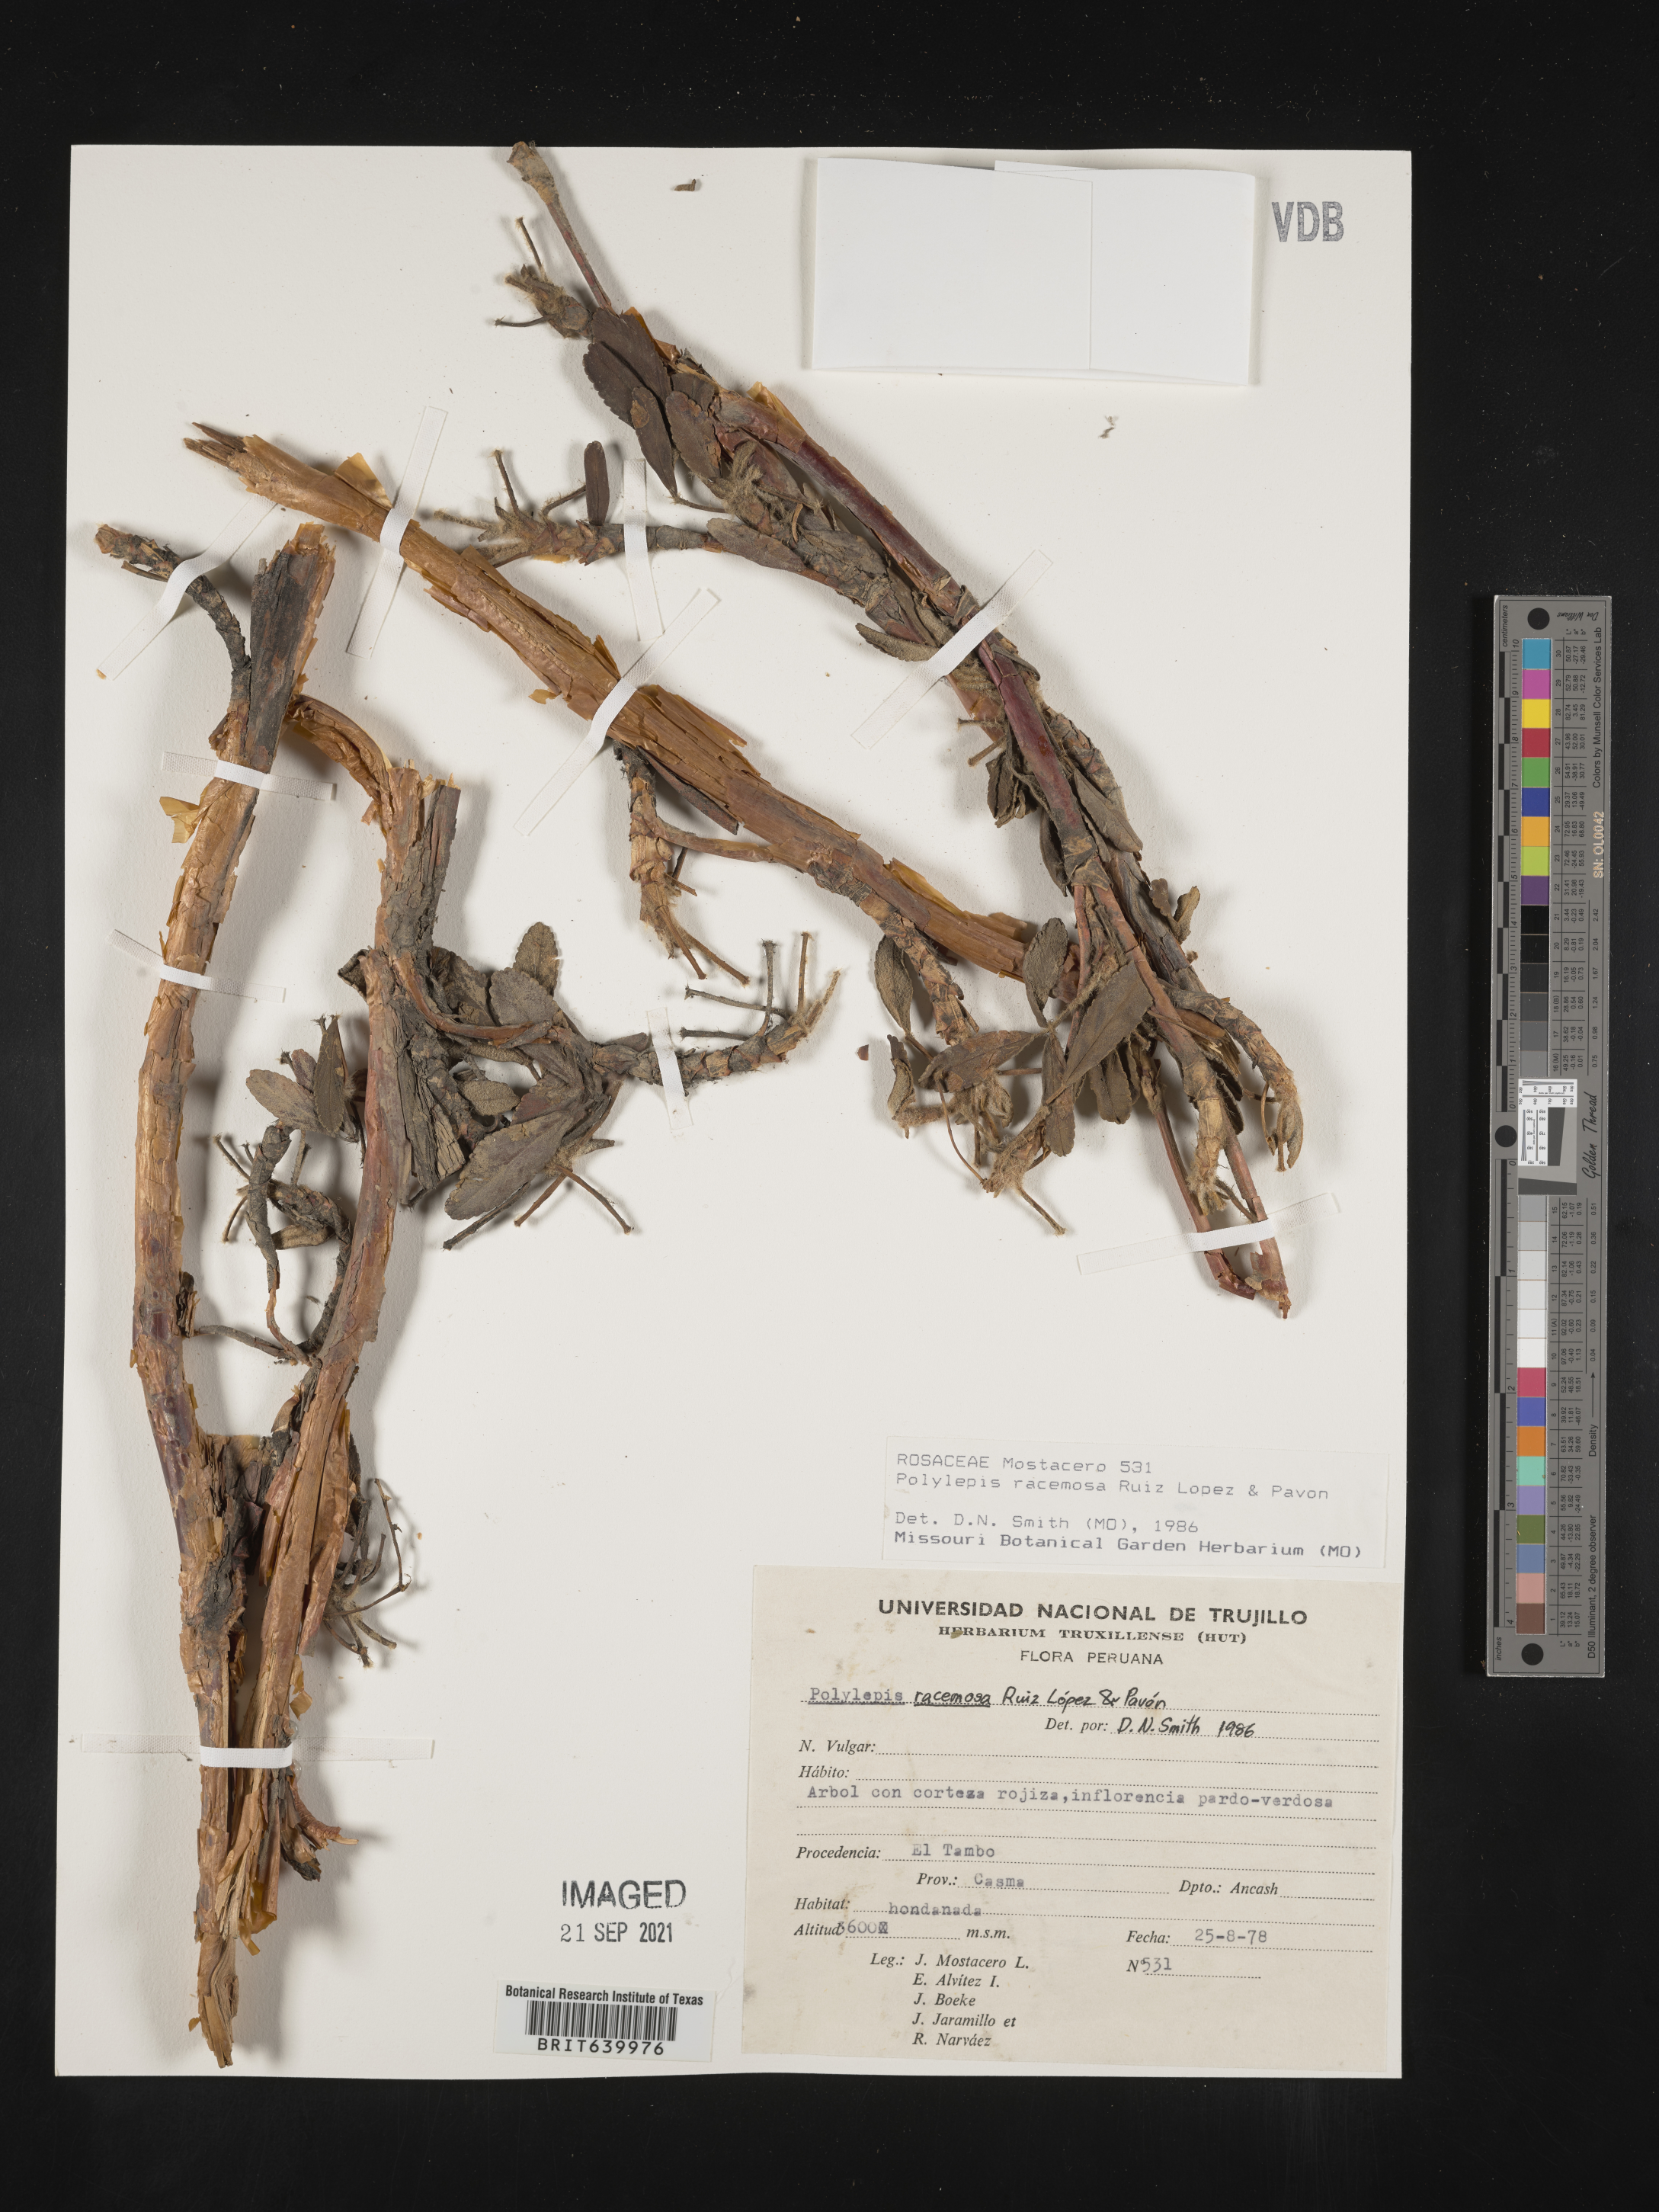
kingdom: Plantae
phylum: Tracheophyta
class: Magnoliopsida
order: Rosales
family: Rosaceae
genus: Polylepis
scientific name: Polylepis
